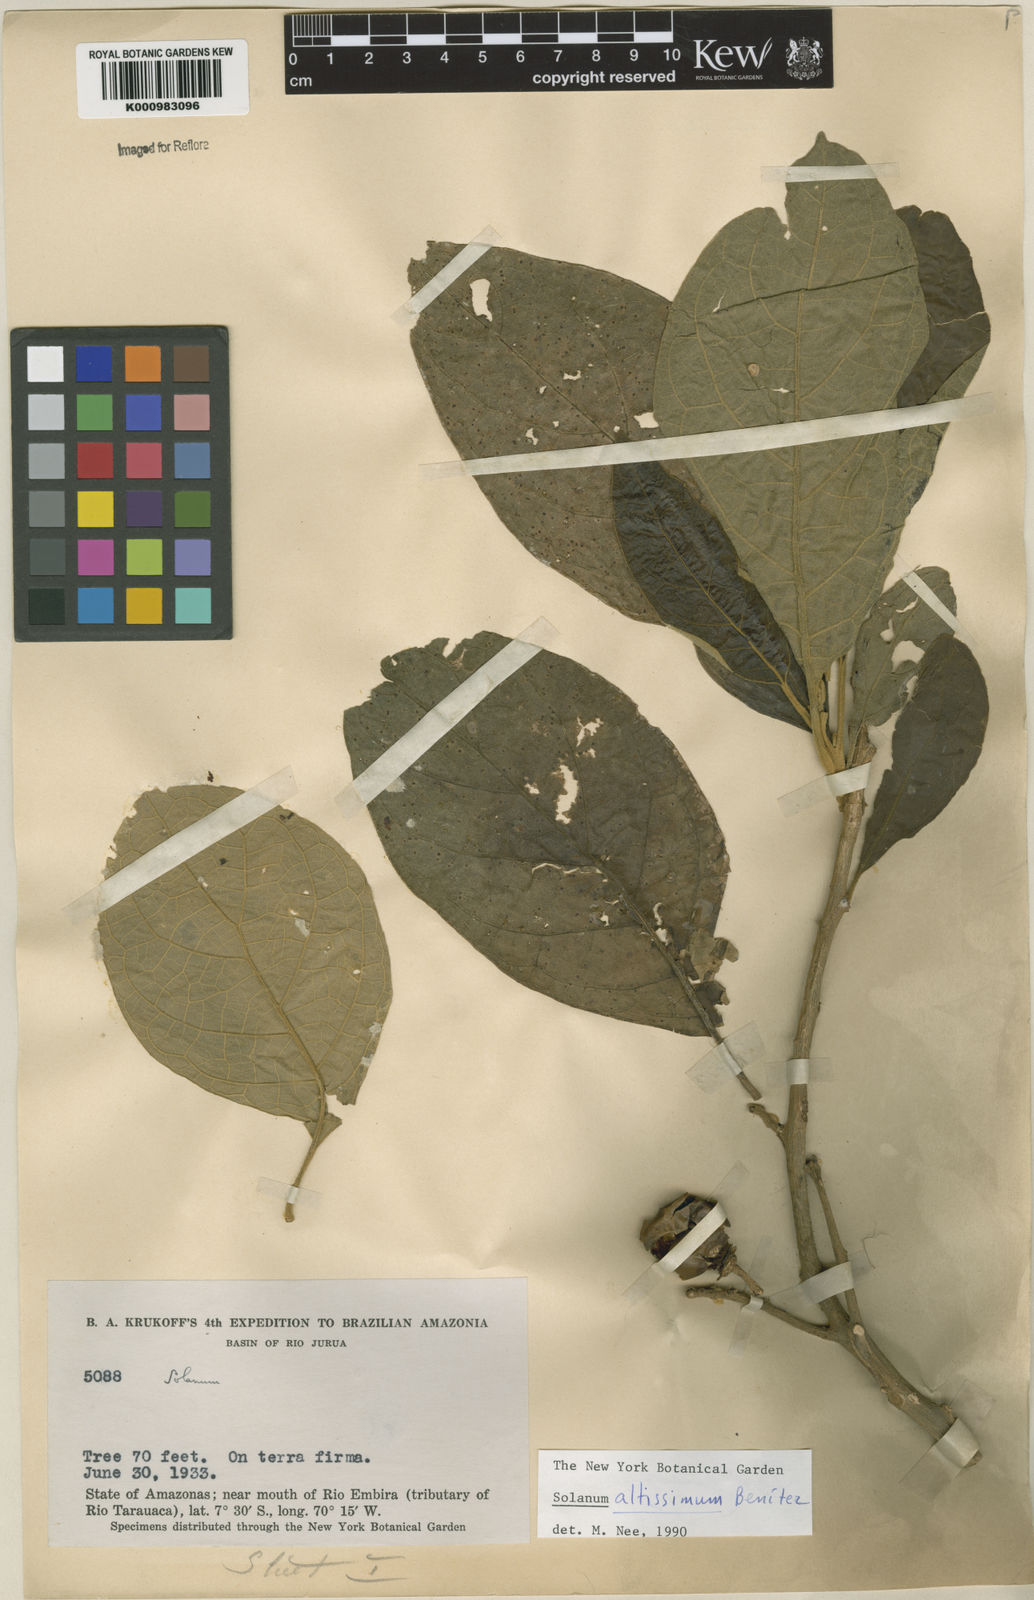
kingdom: Plantae
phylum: Tracheophyta
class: Magnoliopsida
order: Solanales
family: Solanaceae
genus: Solanum
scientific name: Solanum kioniotrichum
